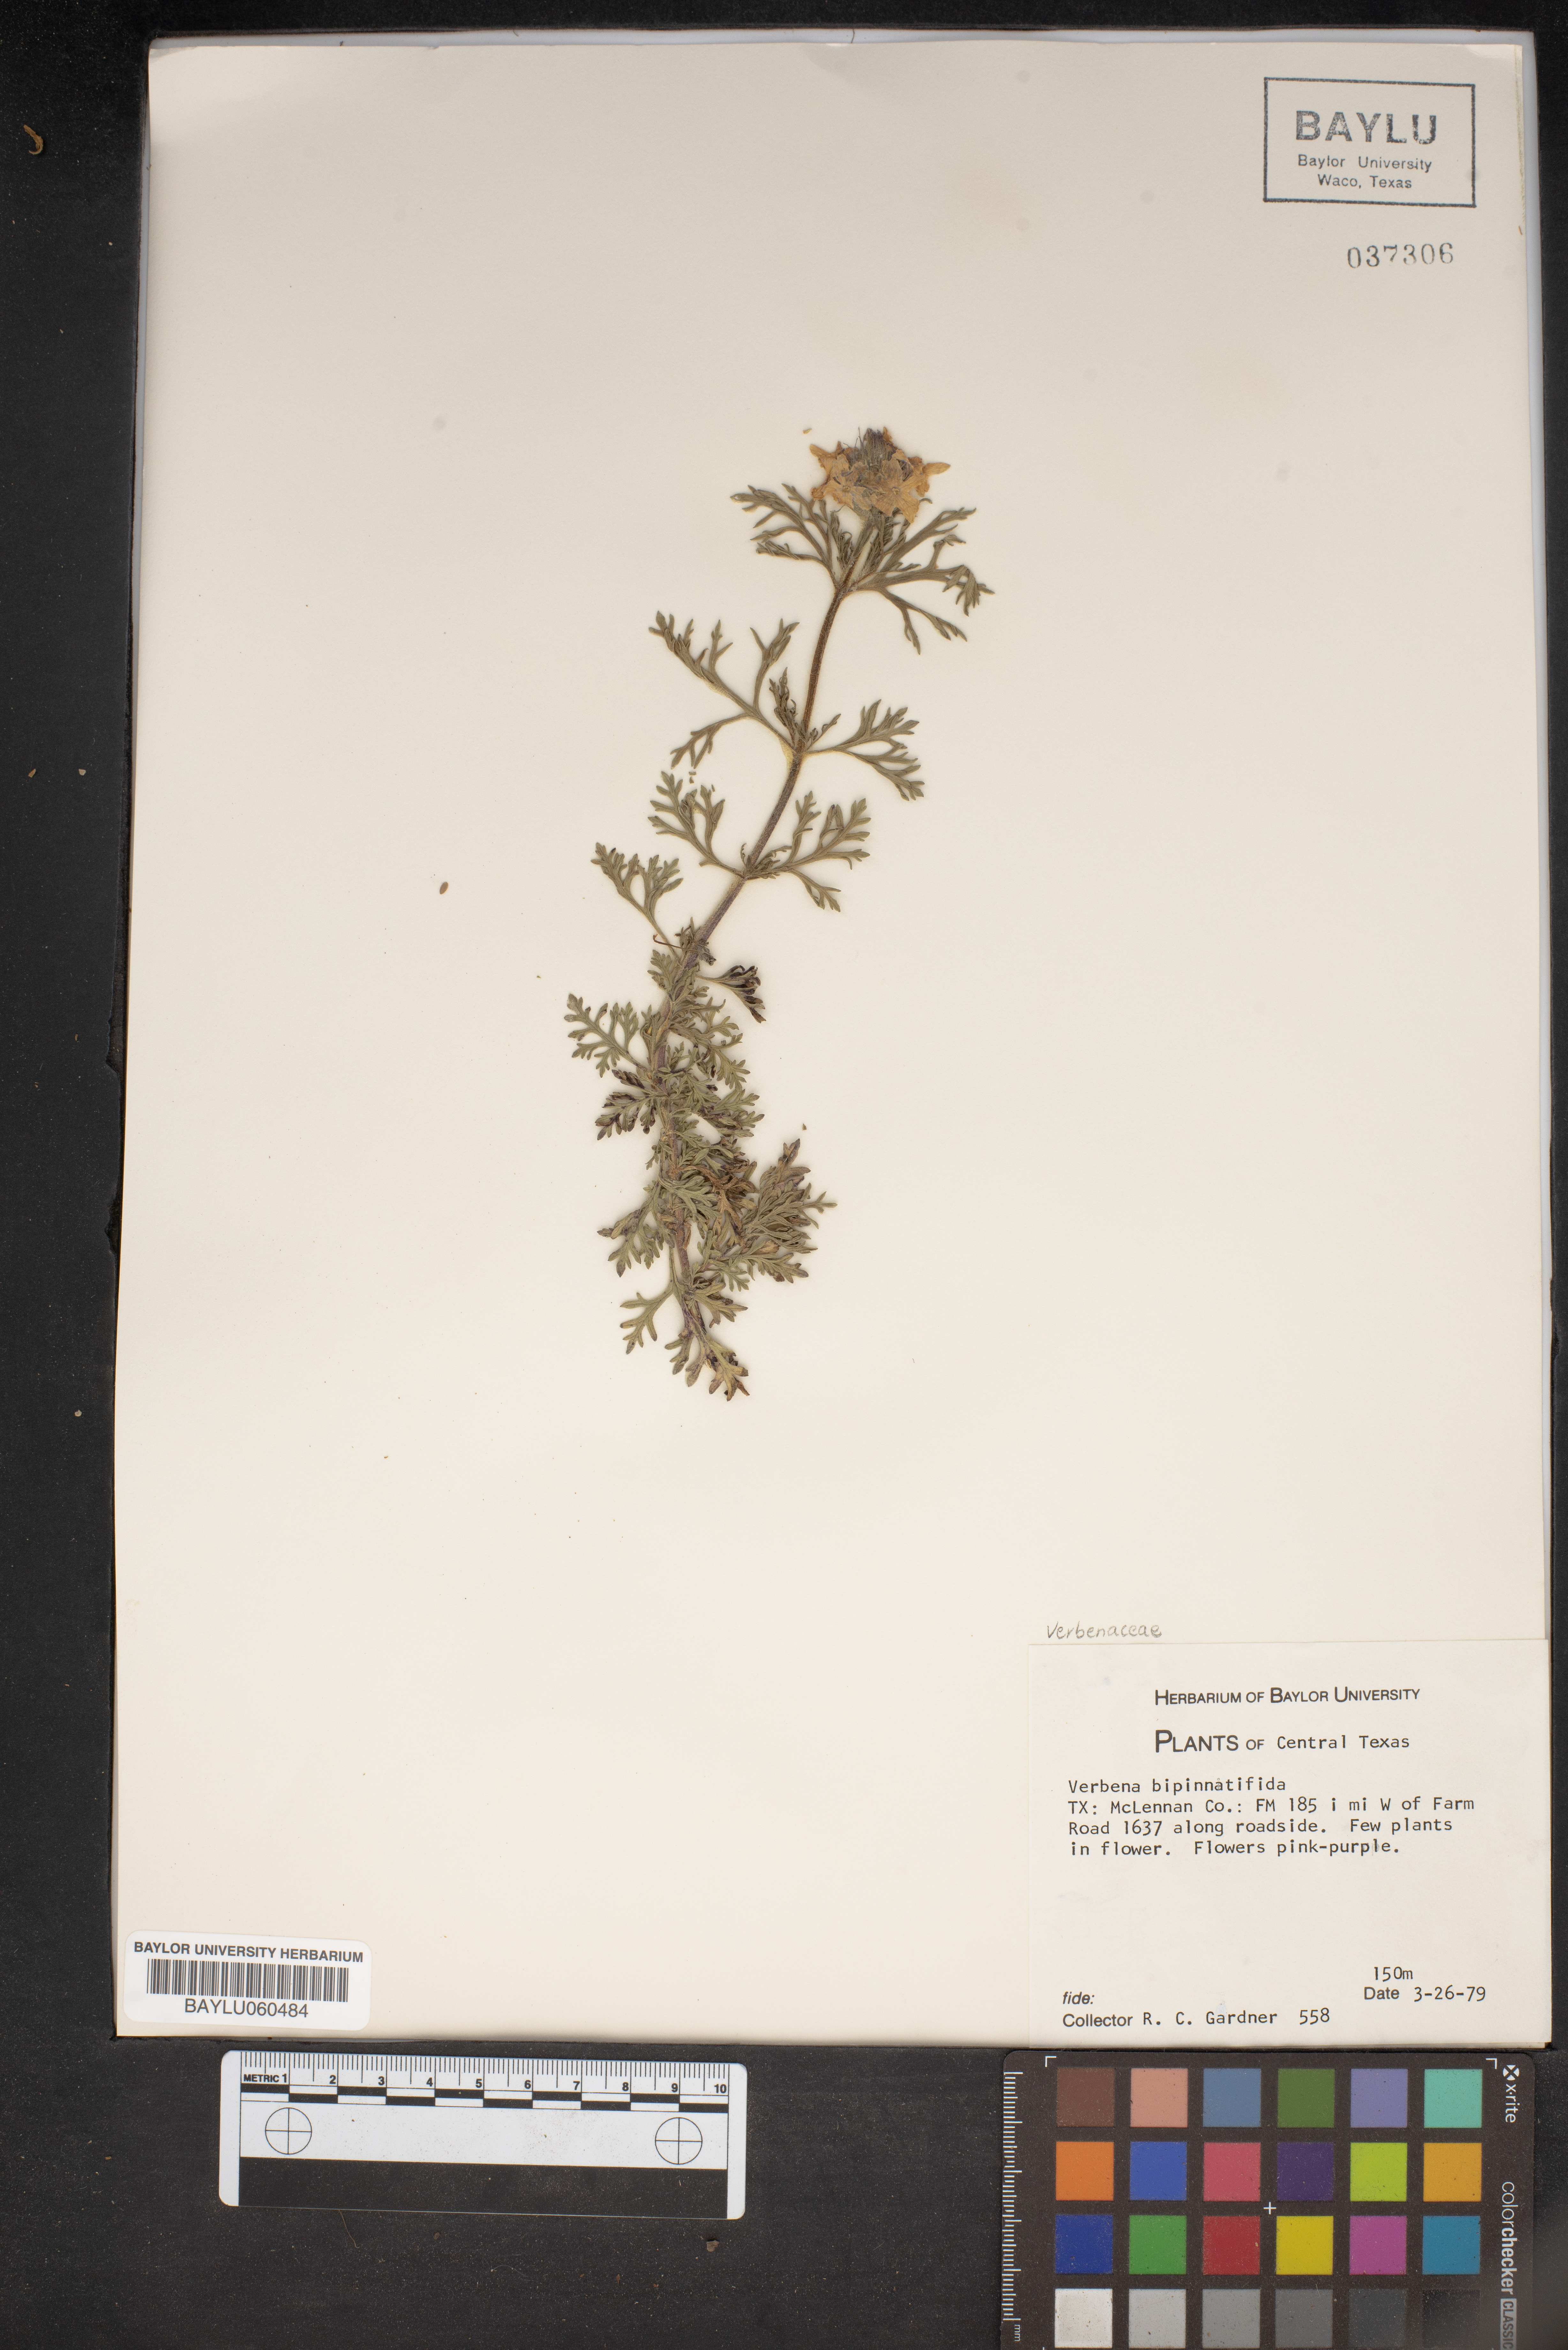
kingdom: Plantae
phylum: Tracheophyta
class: Magnoliopsida
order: Lamiales
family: Verbenaceae
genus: Verbena
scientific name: Verbena bipinnatifida
